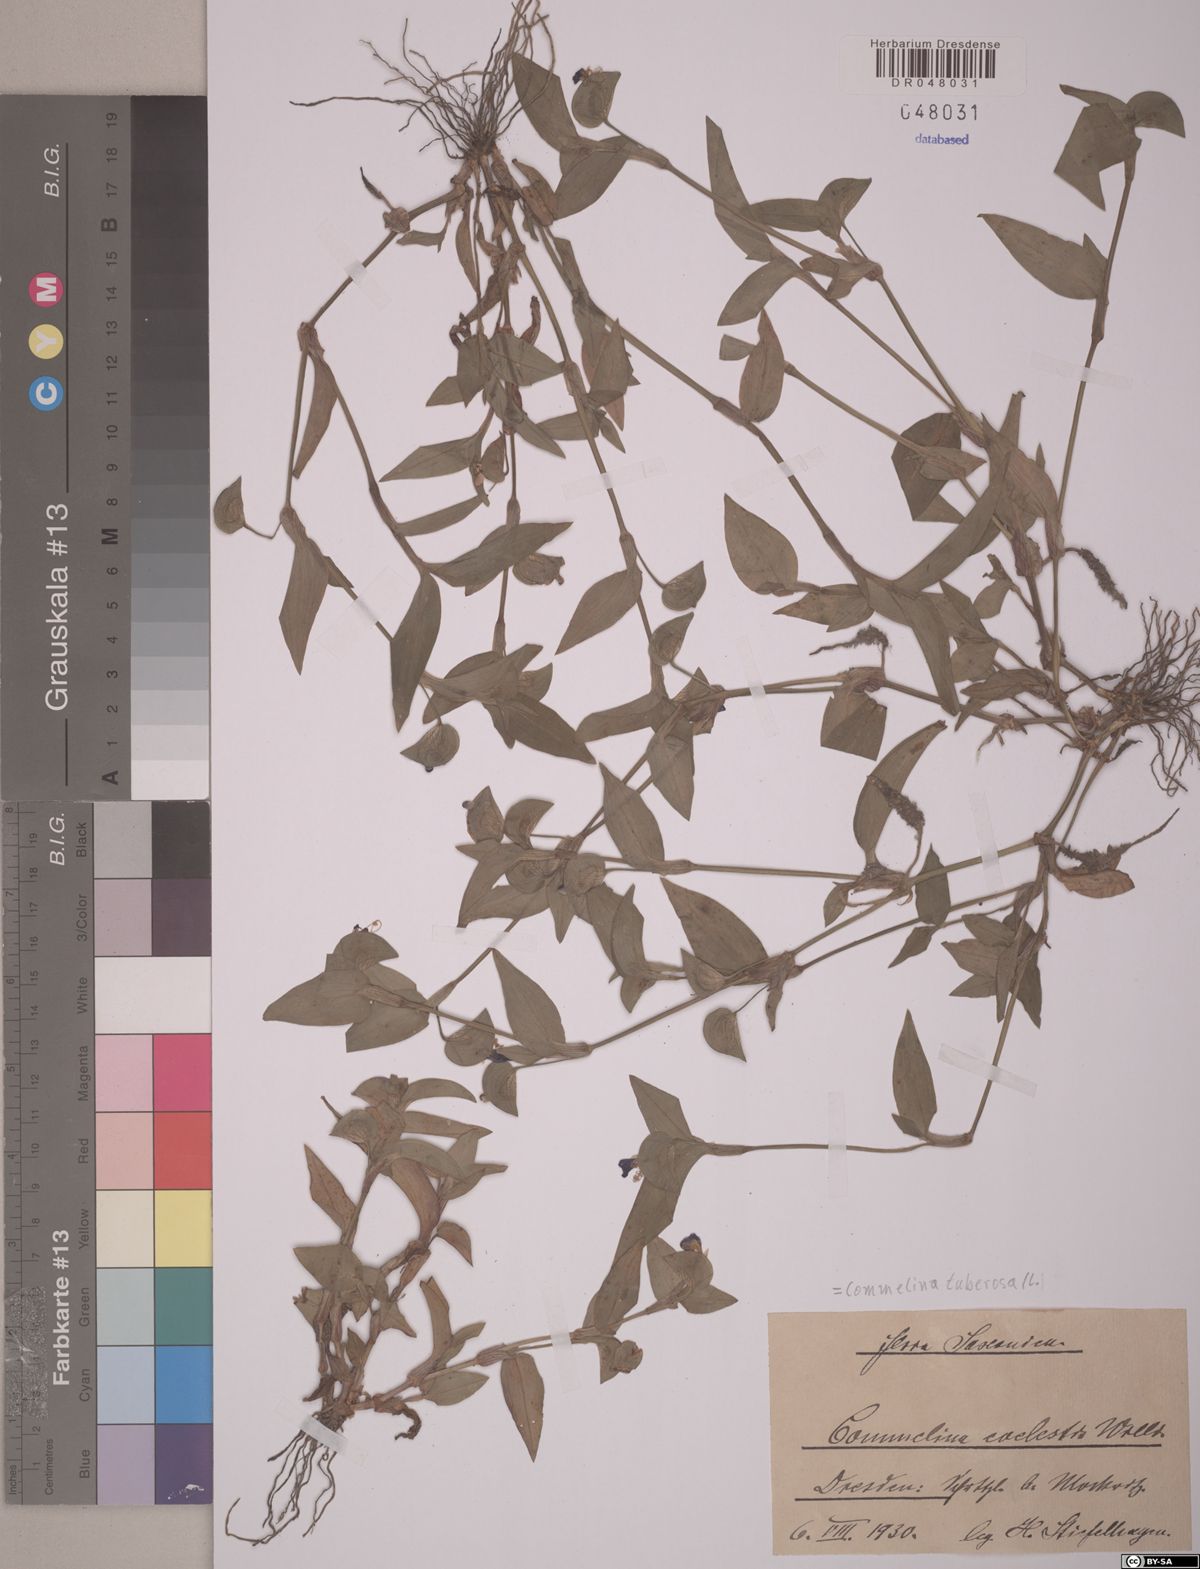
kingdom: Plantae
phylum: Tracheophyta
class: Liliopsida
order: Commelinales
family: Commelinaceae
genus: Commelina
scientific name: Commelina tuberosa
